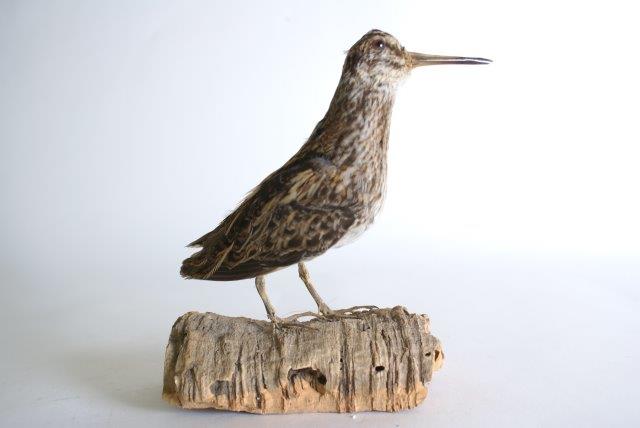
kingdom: Animalia
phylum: Chordata
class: Aves
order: Charadriiformes
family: Scolopacidae
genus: Lymnocryptes
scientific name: Lymnocryptes minimus
